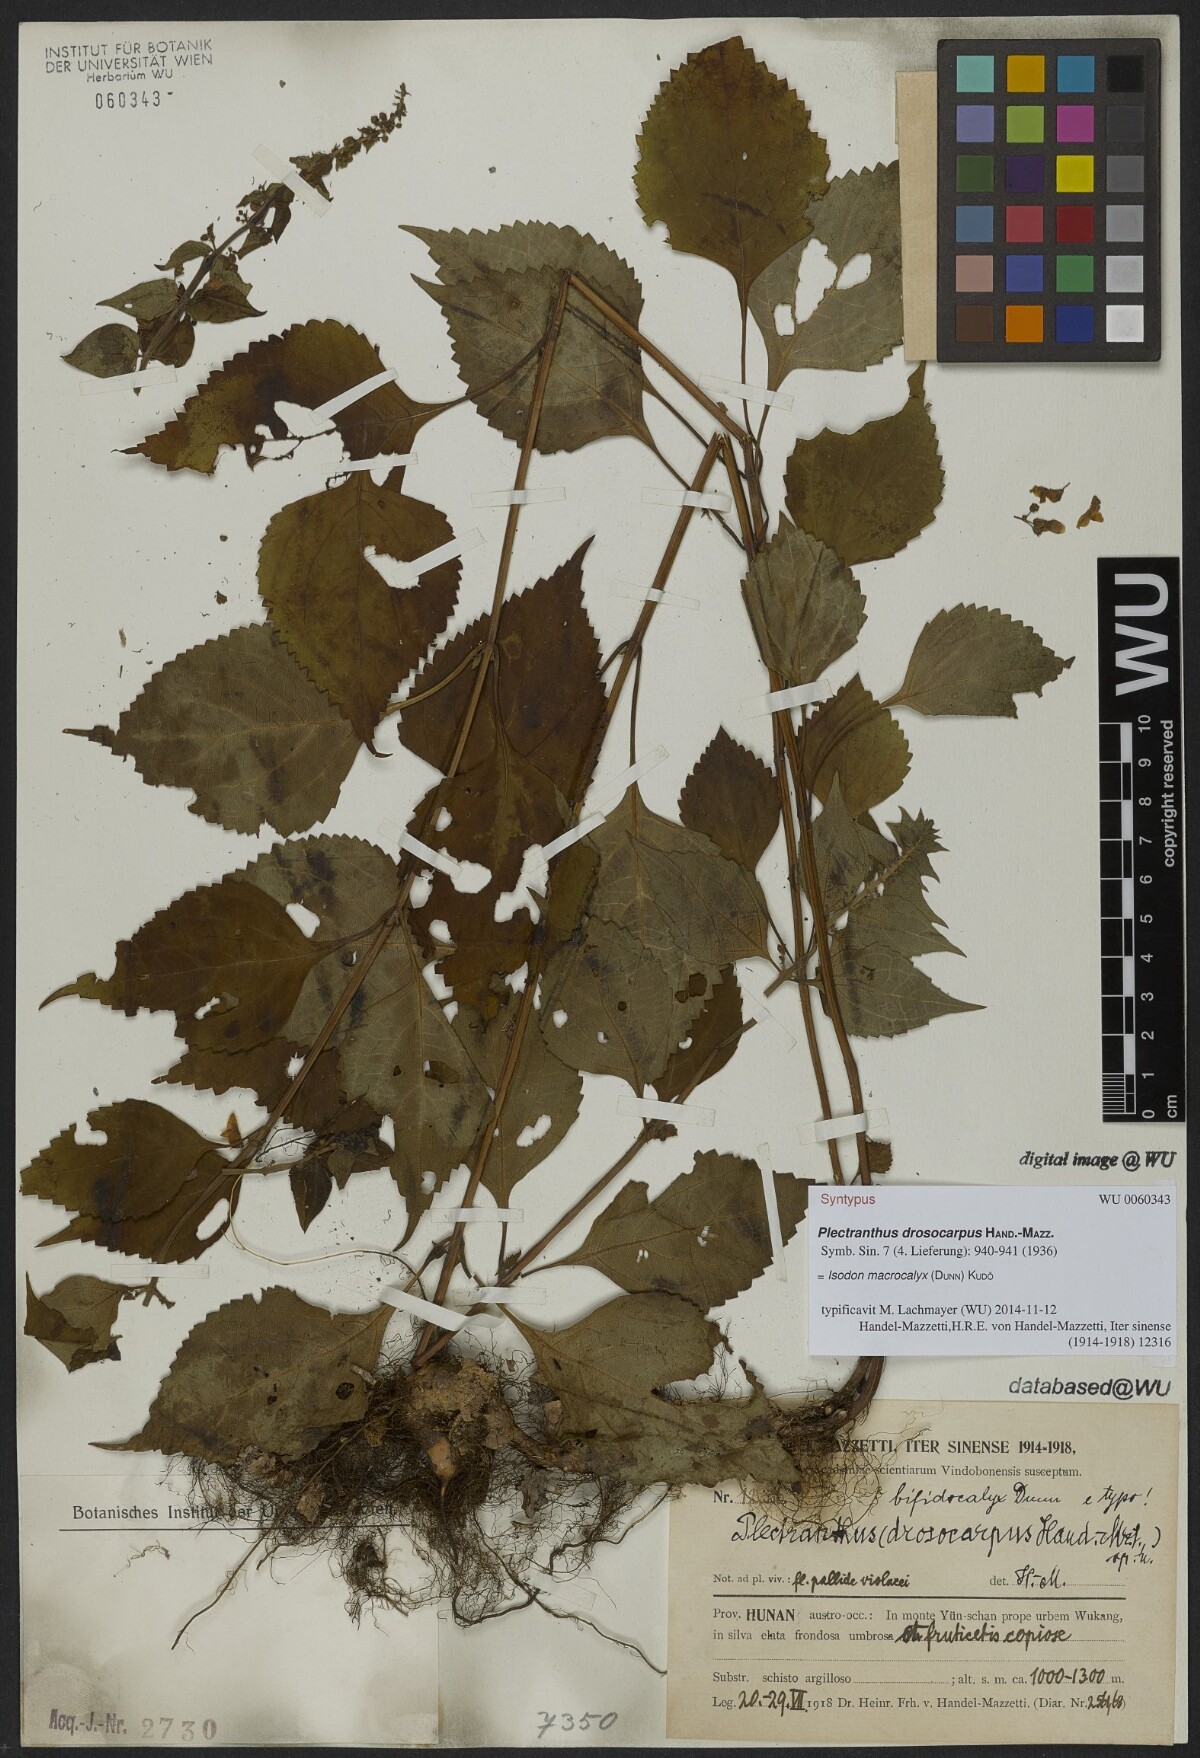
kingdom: Plantae
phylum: Tracheophyta
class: Magnoliopsida
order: Lamiales
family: Lamiaceae
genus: Isodon
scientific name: Isodon macrocalyx
